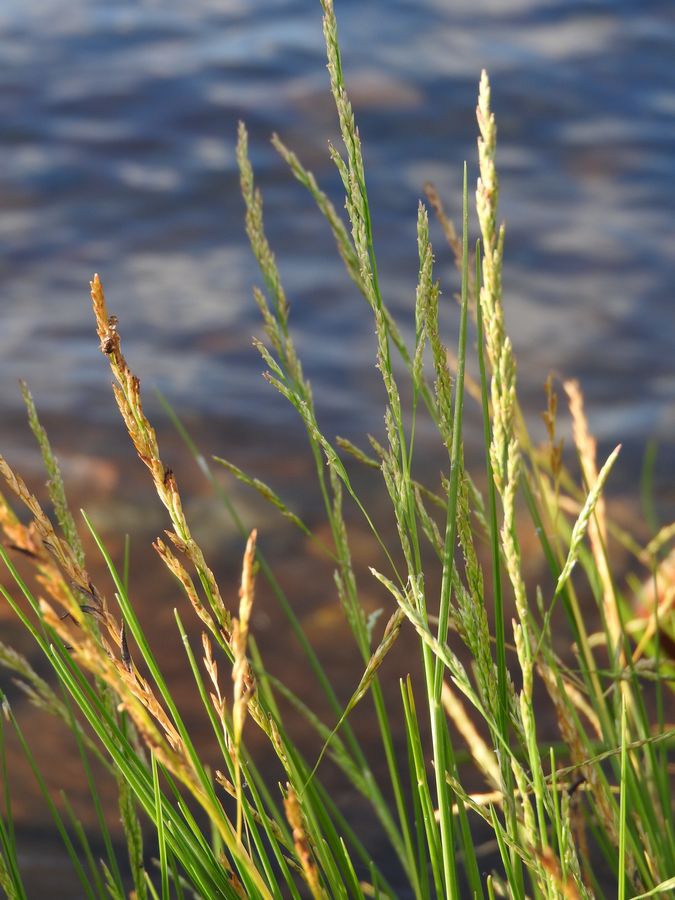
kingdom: Plantae
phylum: Tracheophyta
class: Liliopsida
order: Poales
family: Poaceae
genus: Puccinellia
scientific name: Puccinellia maritima
